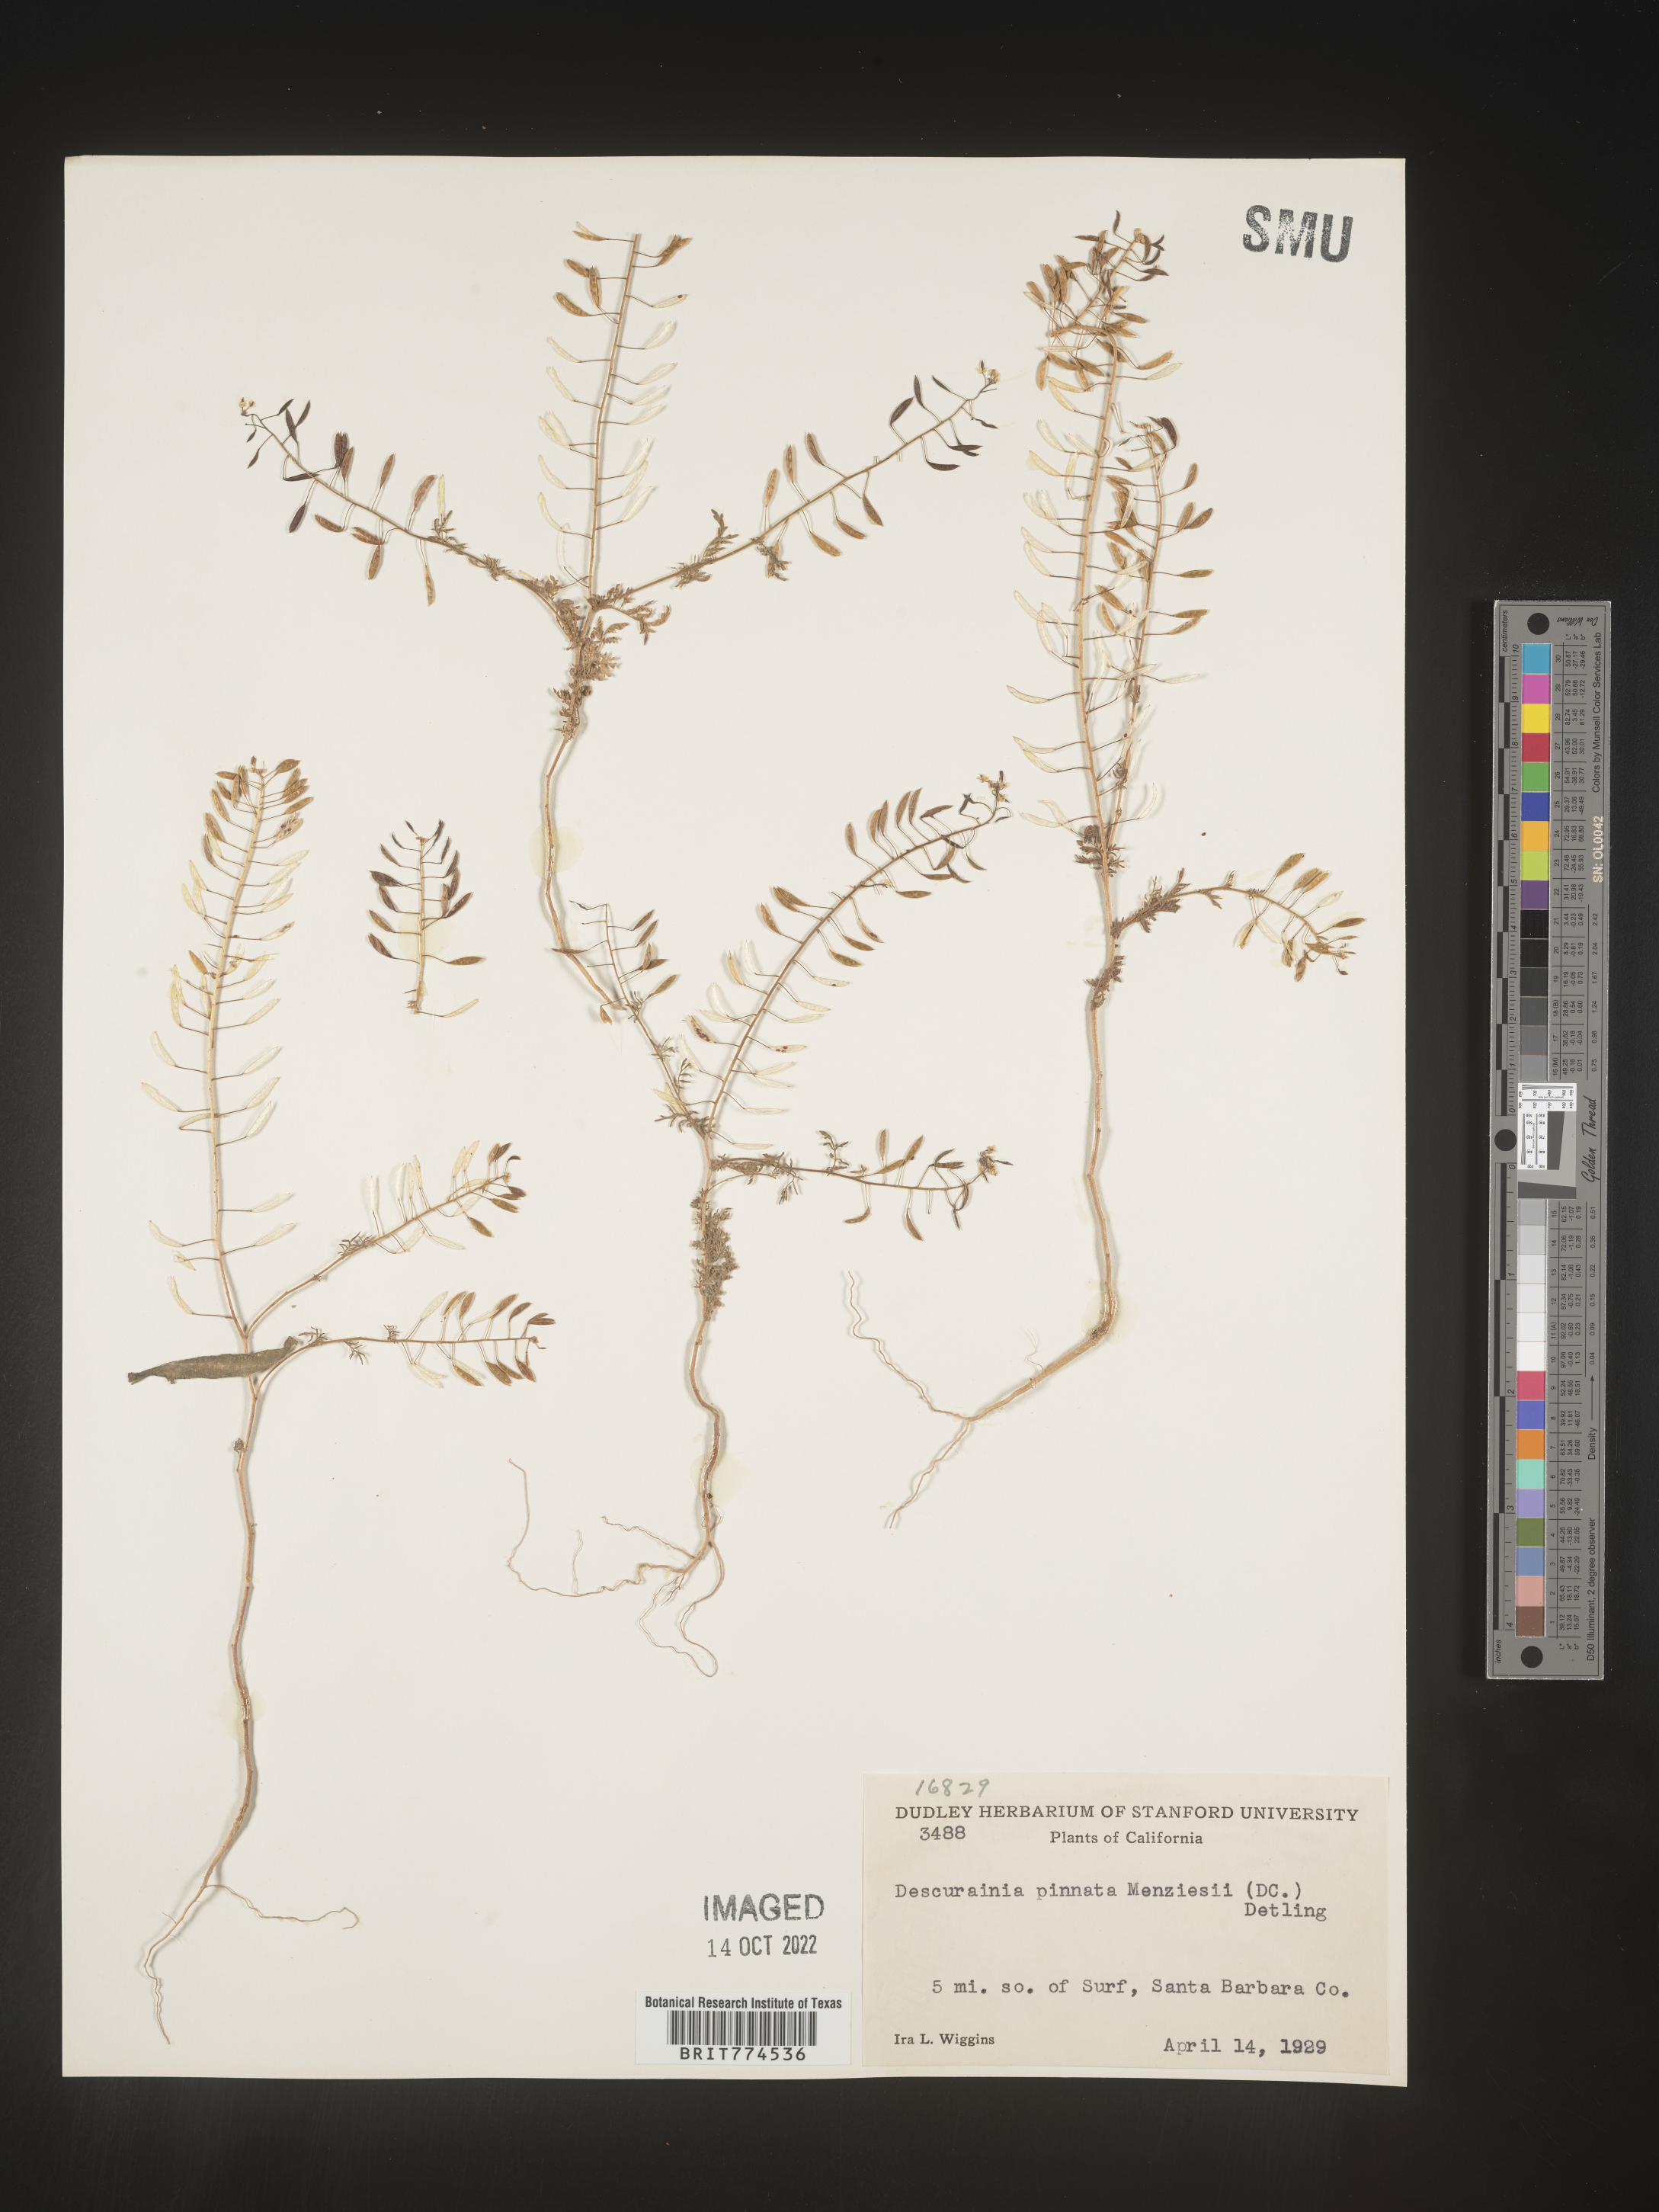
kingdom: Plantae
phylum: Tracheophyta
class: Magnoliopsida
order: Brassicales
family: Brassicaceae
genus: Descurainia
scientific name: Descurainia pinnata
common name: Western tansy mustard
